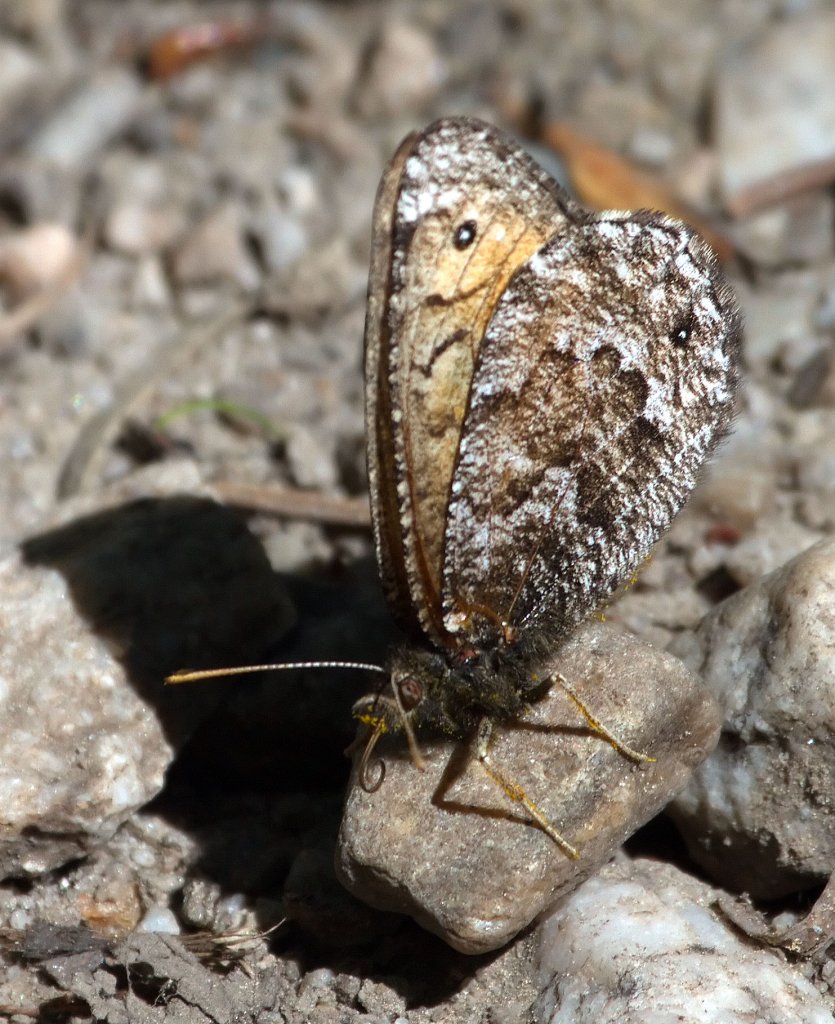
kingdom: Animalia
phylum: Arthropoda
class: Insecta
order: Lepidoptera
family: Nymphalidae
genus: Oeneis
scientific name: Oeneis chryxus
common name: Chryxus Arctic
